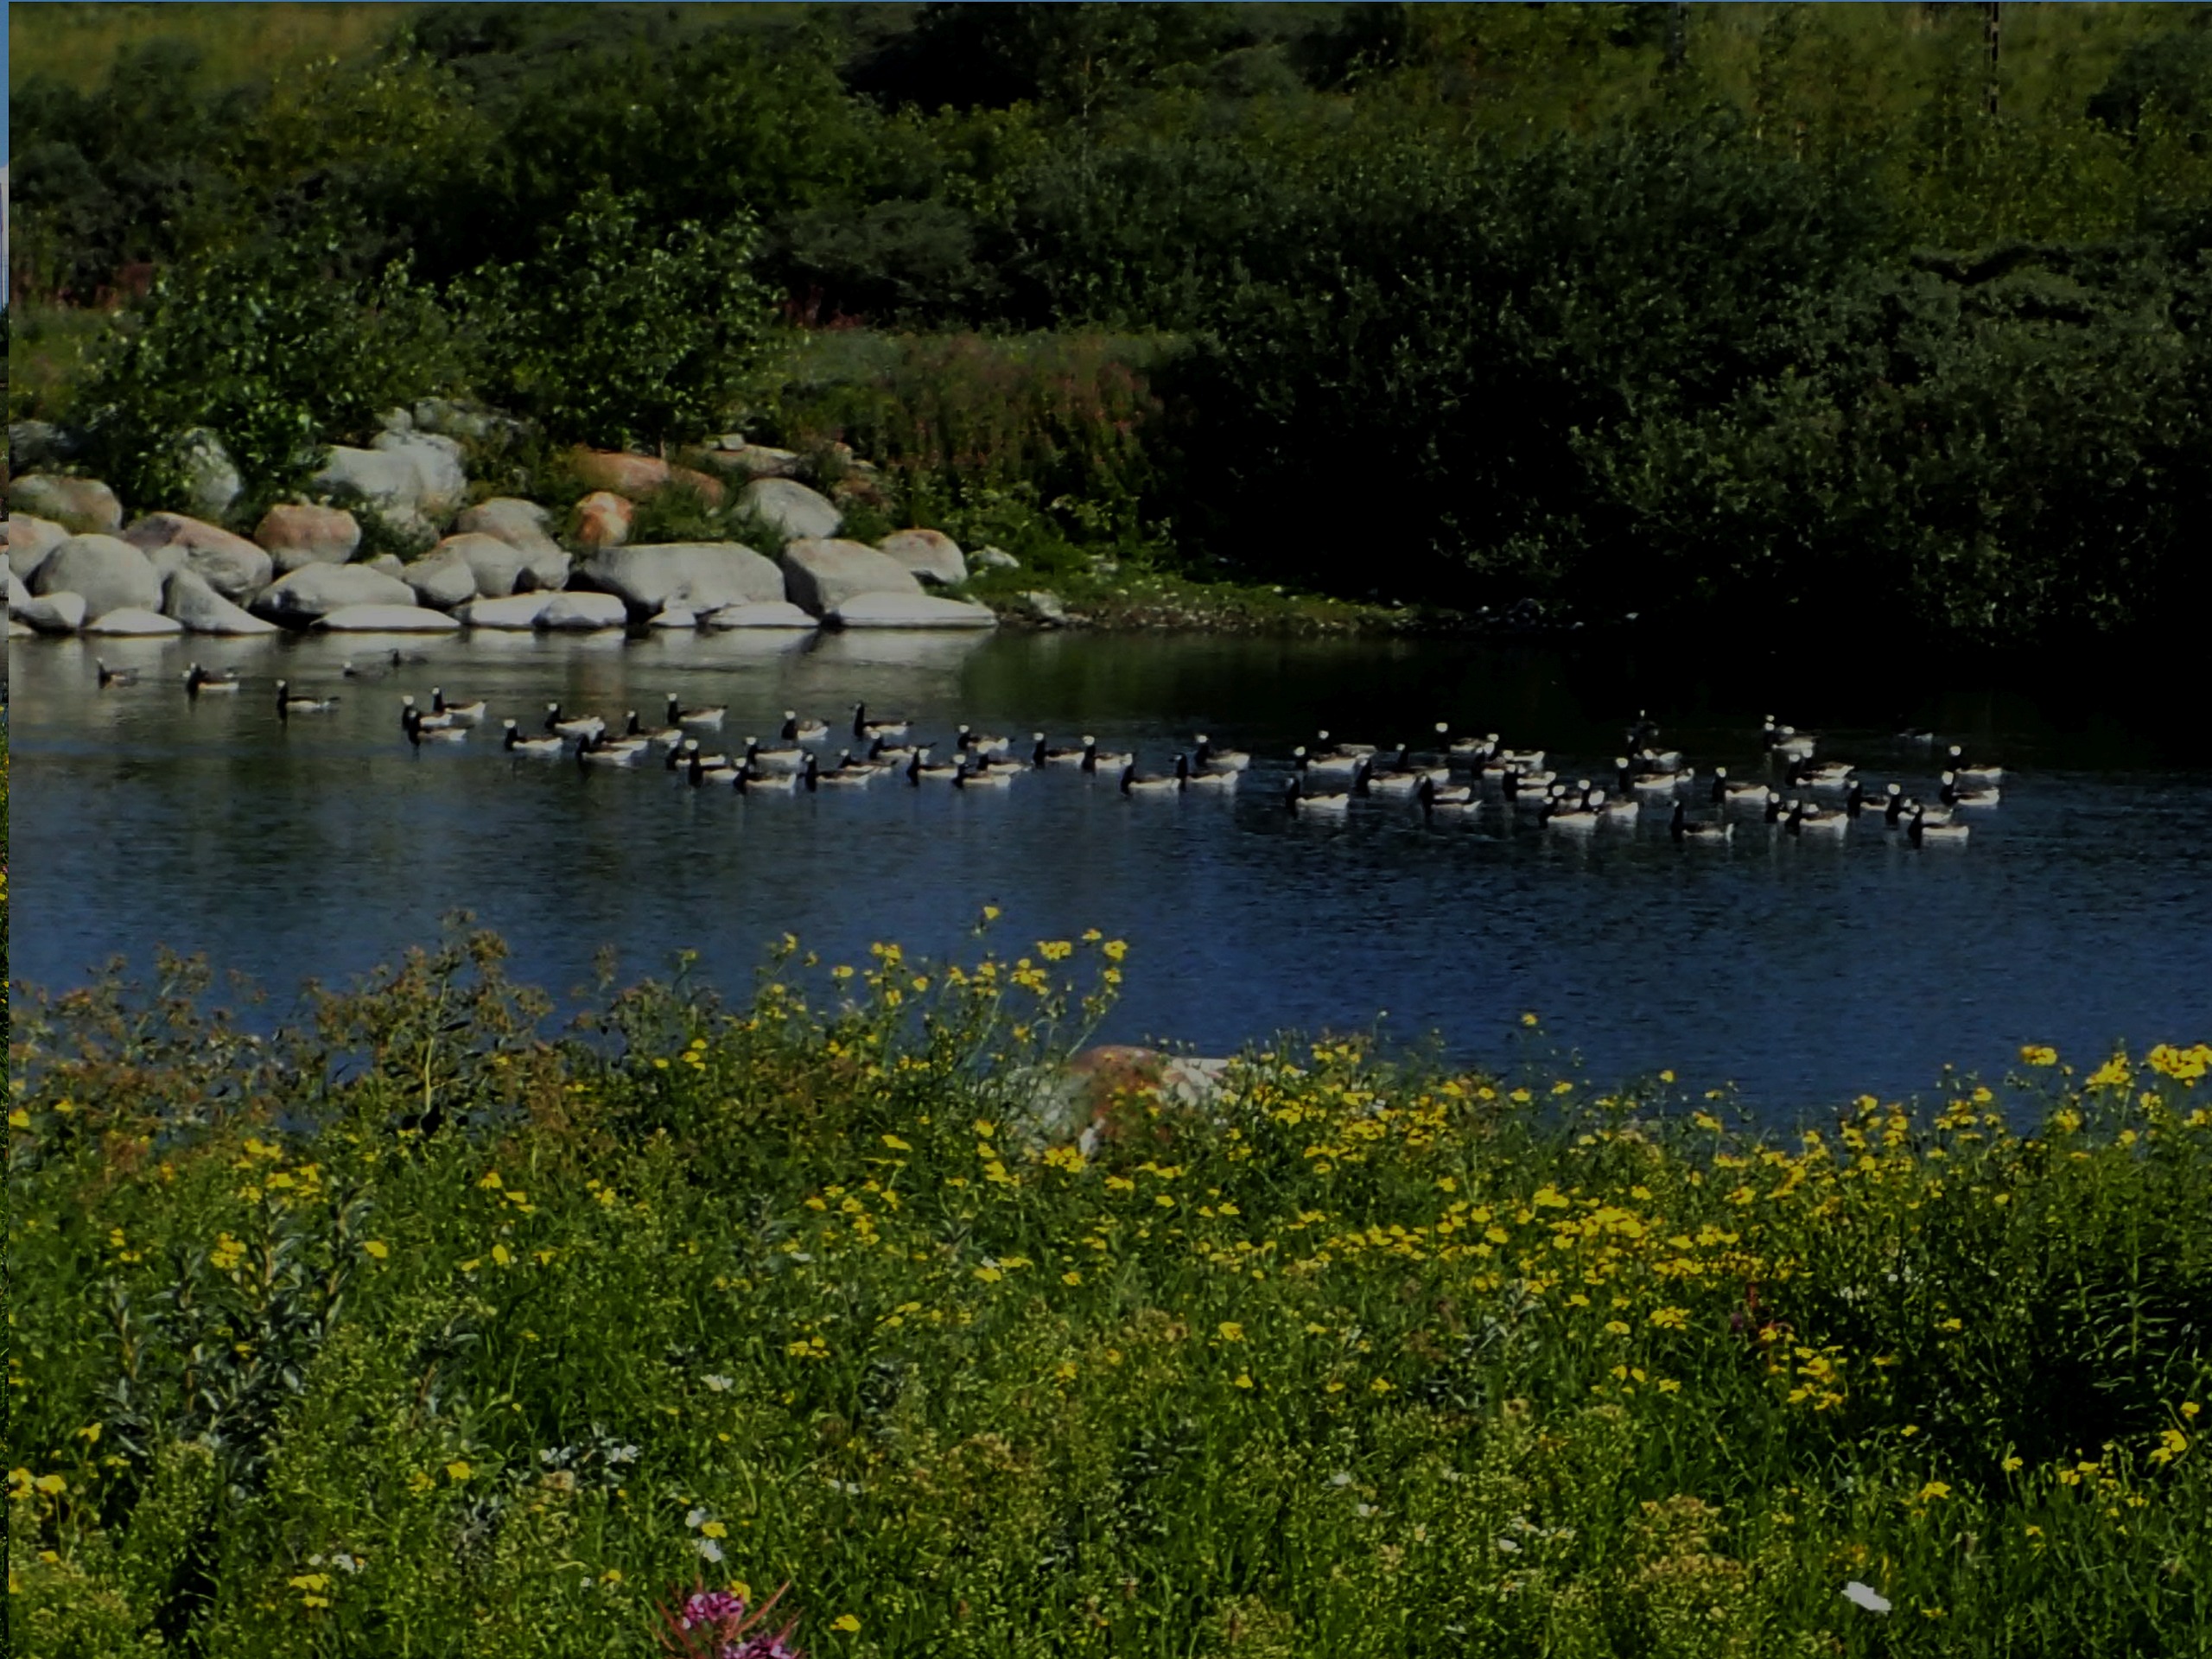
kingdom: Animalia
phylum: Chordata
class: Aves
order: Anseriformes
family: Anatidae
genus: Branta
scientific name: Branta leucopsis
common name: Bramgås
